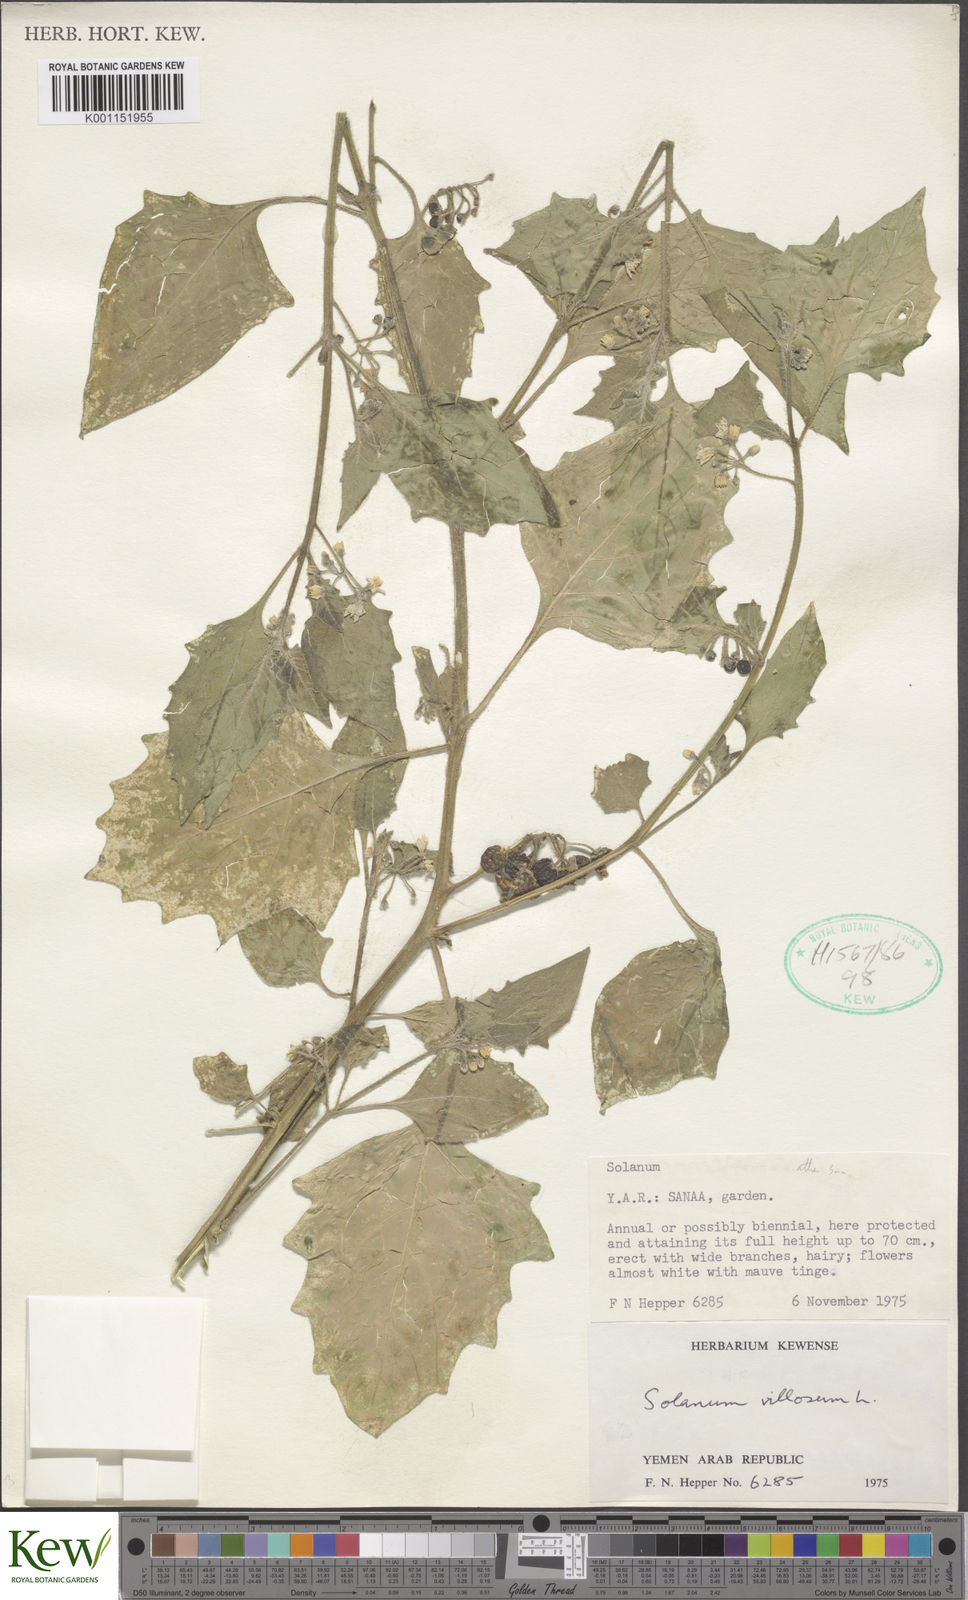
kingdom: Plantae
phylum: Tracheophyta
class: Magnoliopsida
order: Solanales
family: Solanaceae
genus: Solanum
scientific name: Solanum
